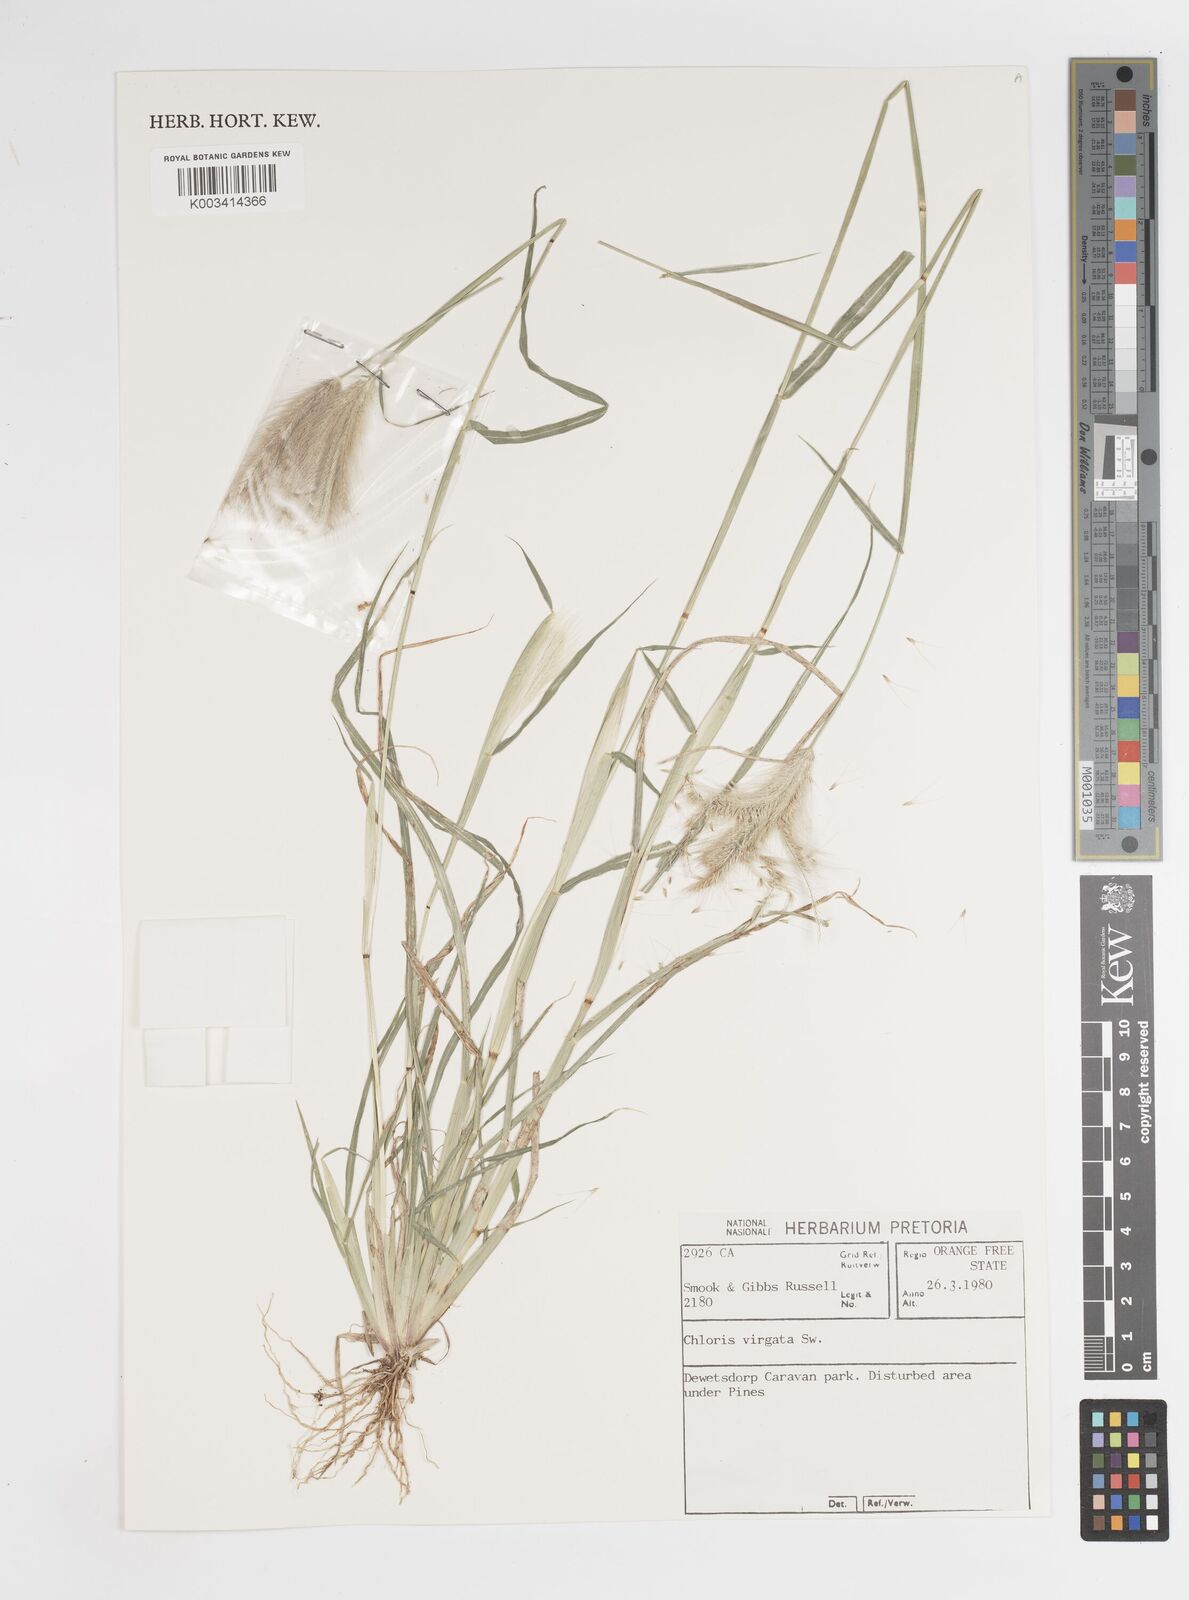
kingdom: Plantae
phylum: Tracheophyta
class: Liliopsida
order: Poales
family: Poaceae
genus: Chloris
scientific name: Chloris virgata
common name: Feathery rhodes-grass
